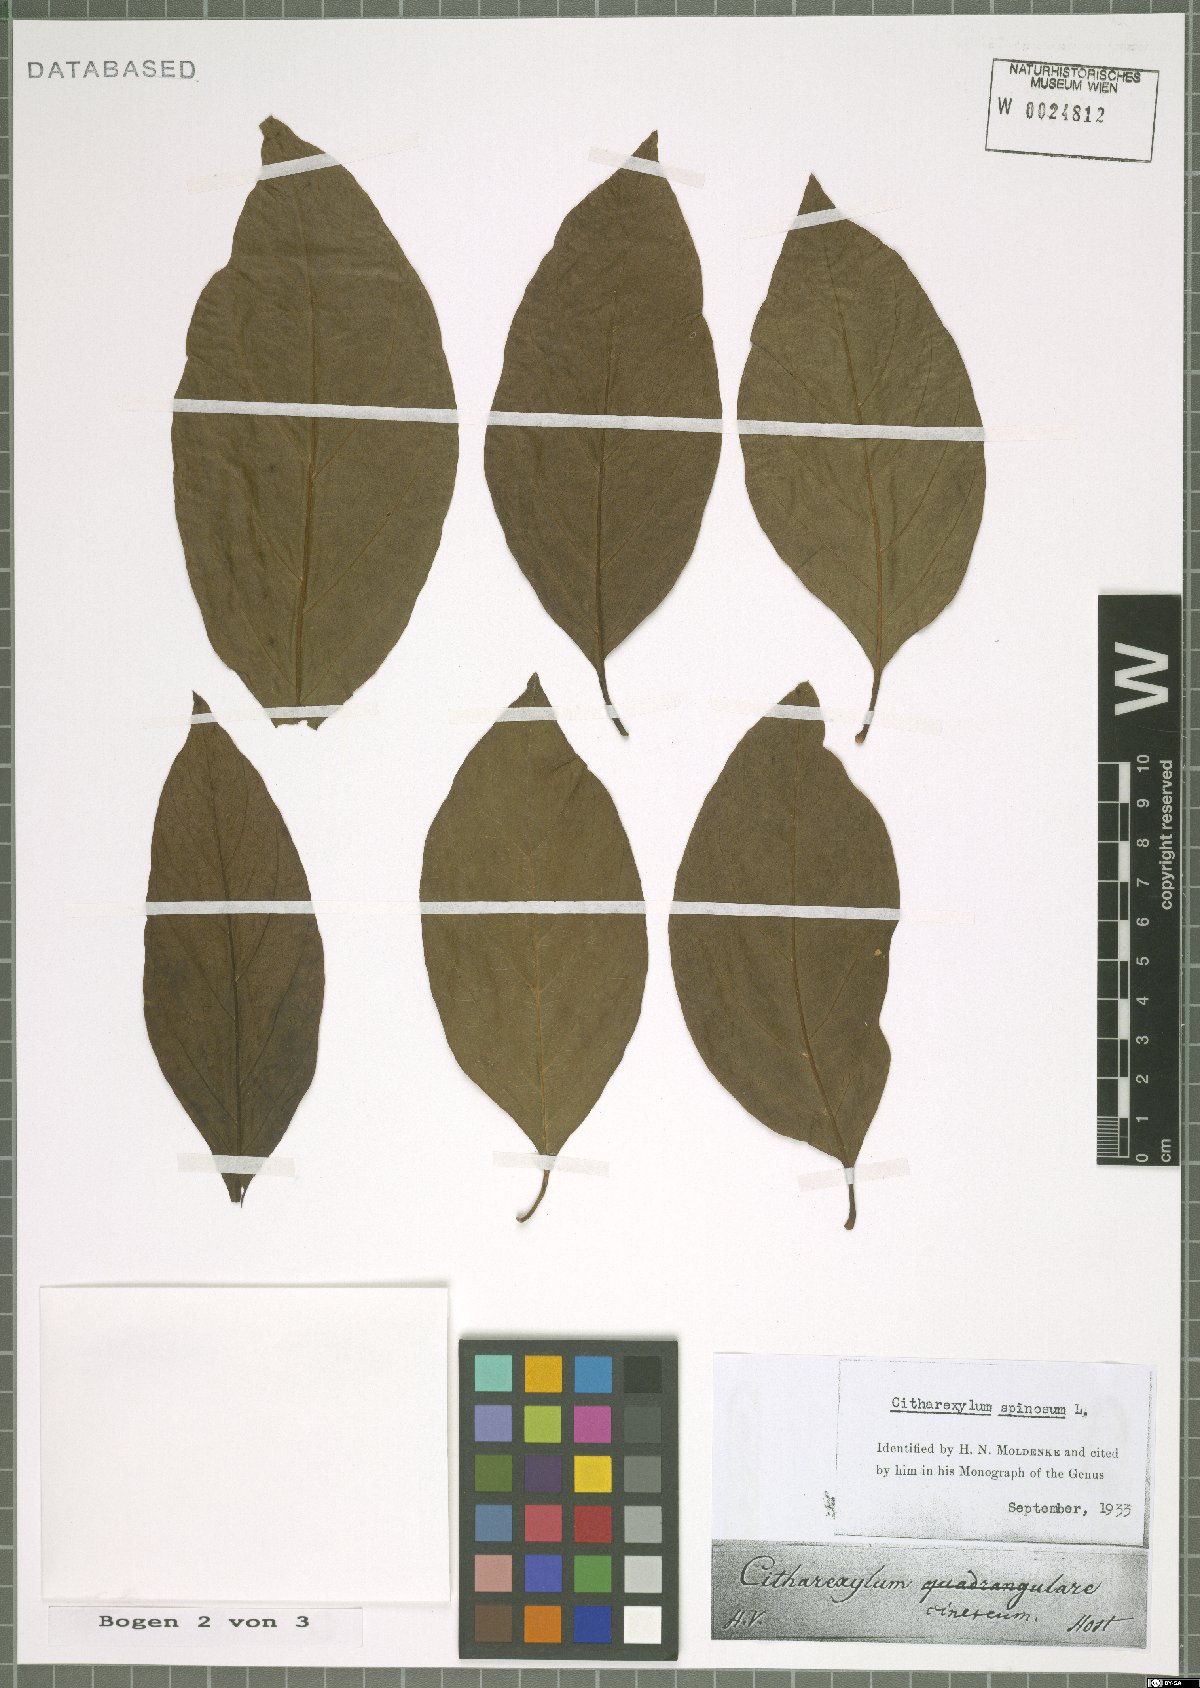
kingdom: Plantae
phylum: Tracheophyta
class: Magnoliopsida
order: Lamiales
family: Verbenaceae
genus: Citharexylum
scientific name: Citharexylum spinosum
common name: Fiddlewood
